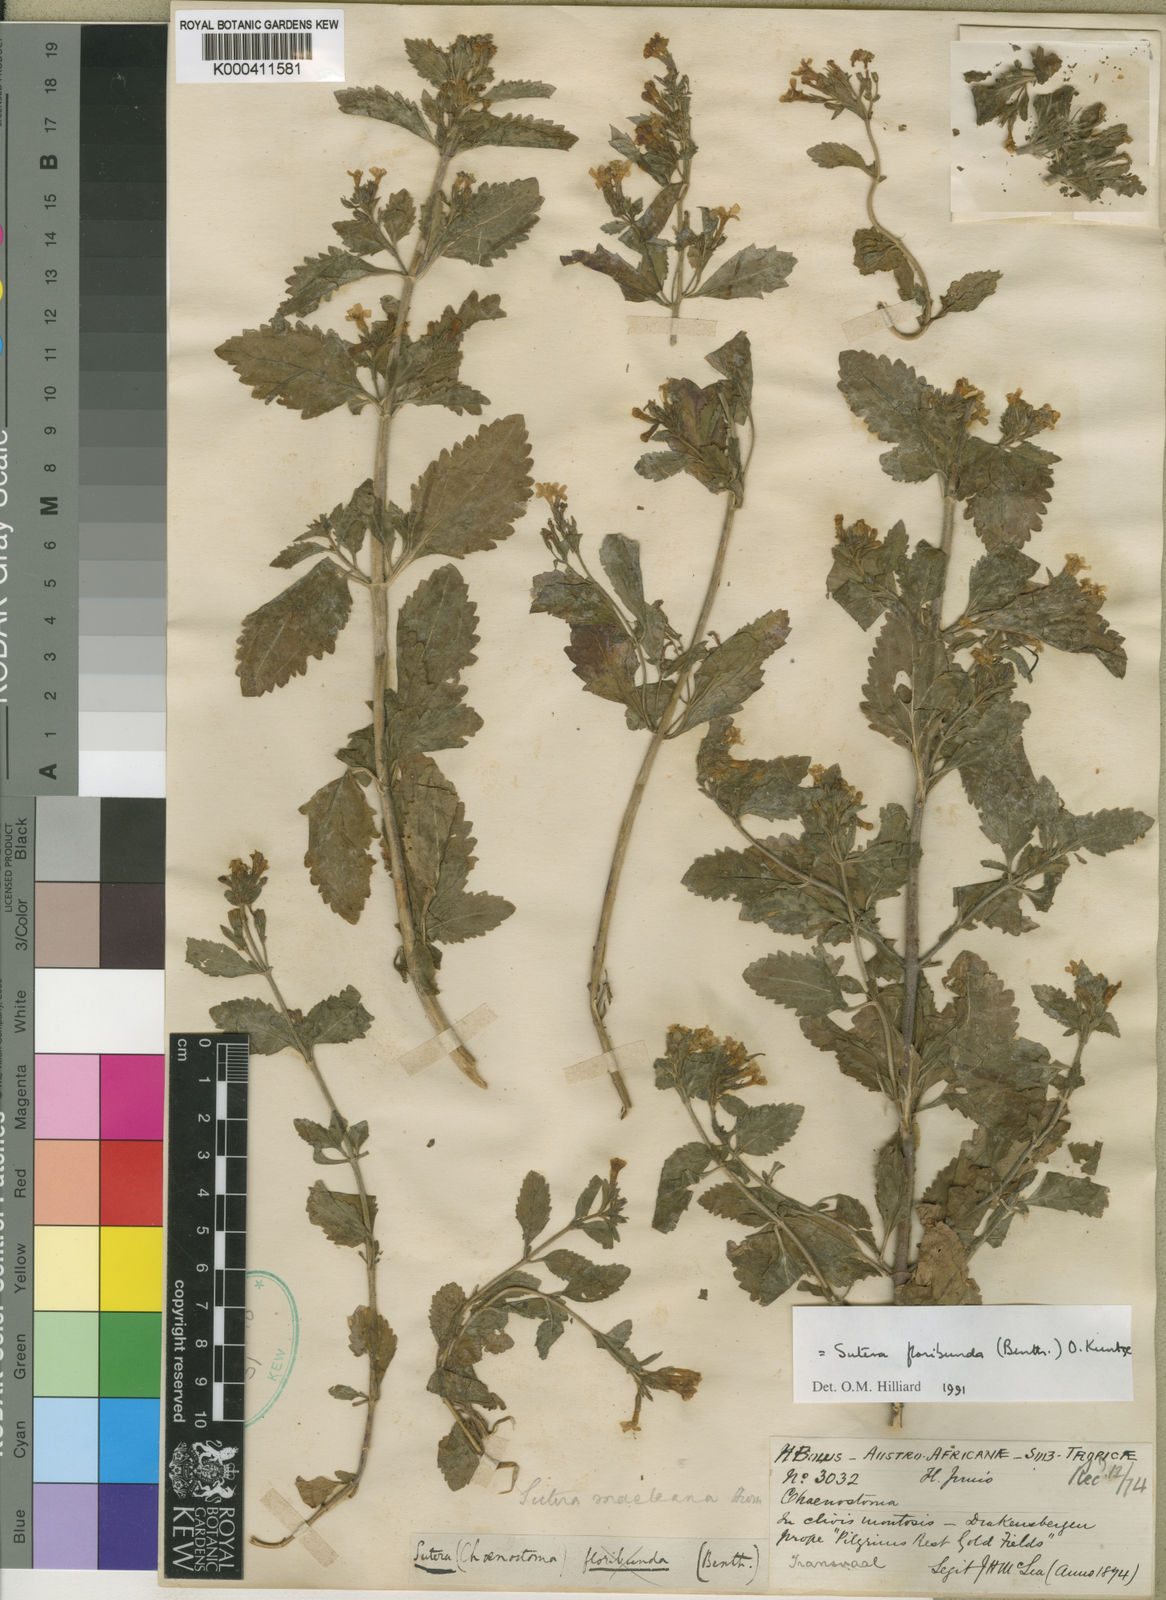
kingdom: Plantae
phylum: Tracheophyta
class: Magnoliopsida
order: Lamiales
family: Scrophulariaceae
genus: Chaenostoma
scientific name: Chaenostoma floribundum
